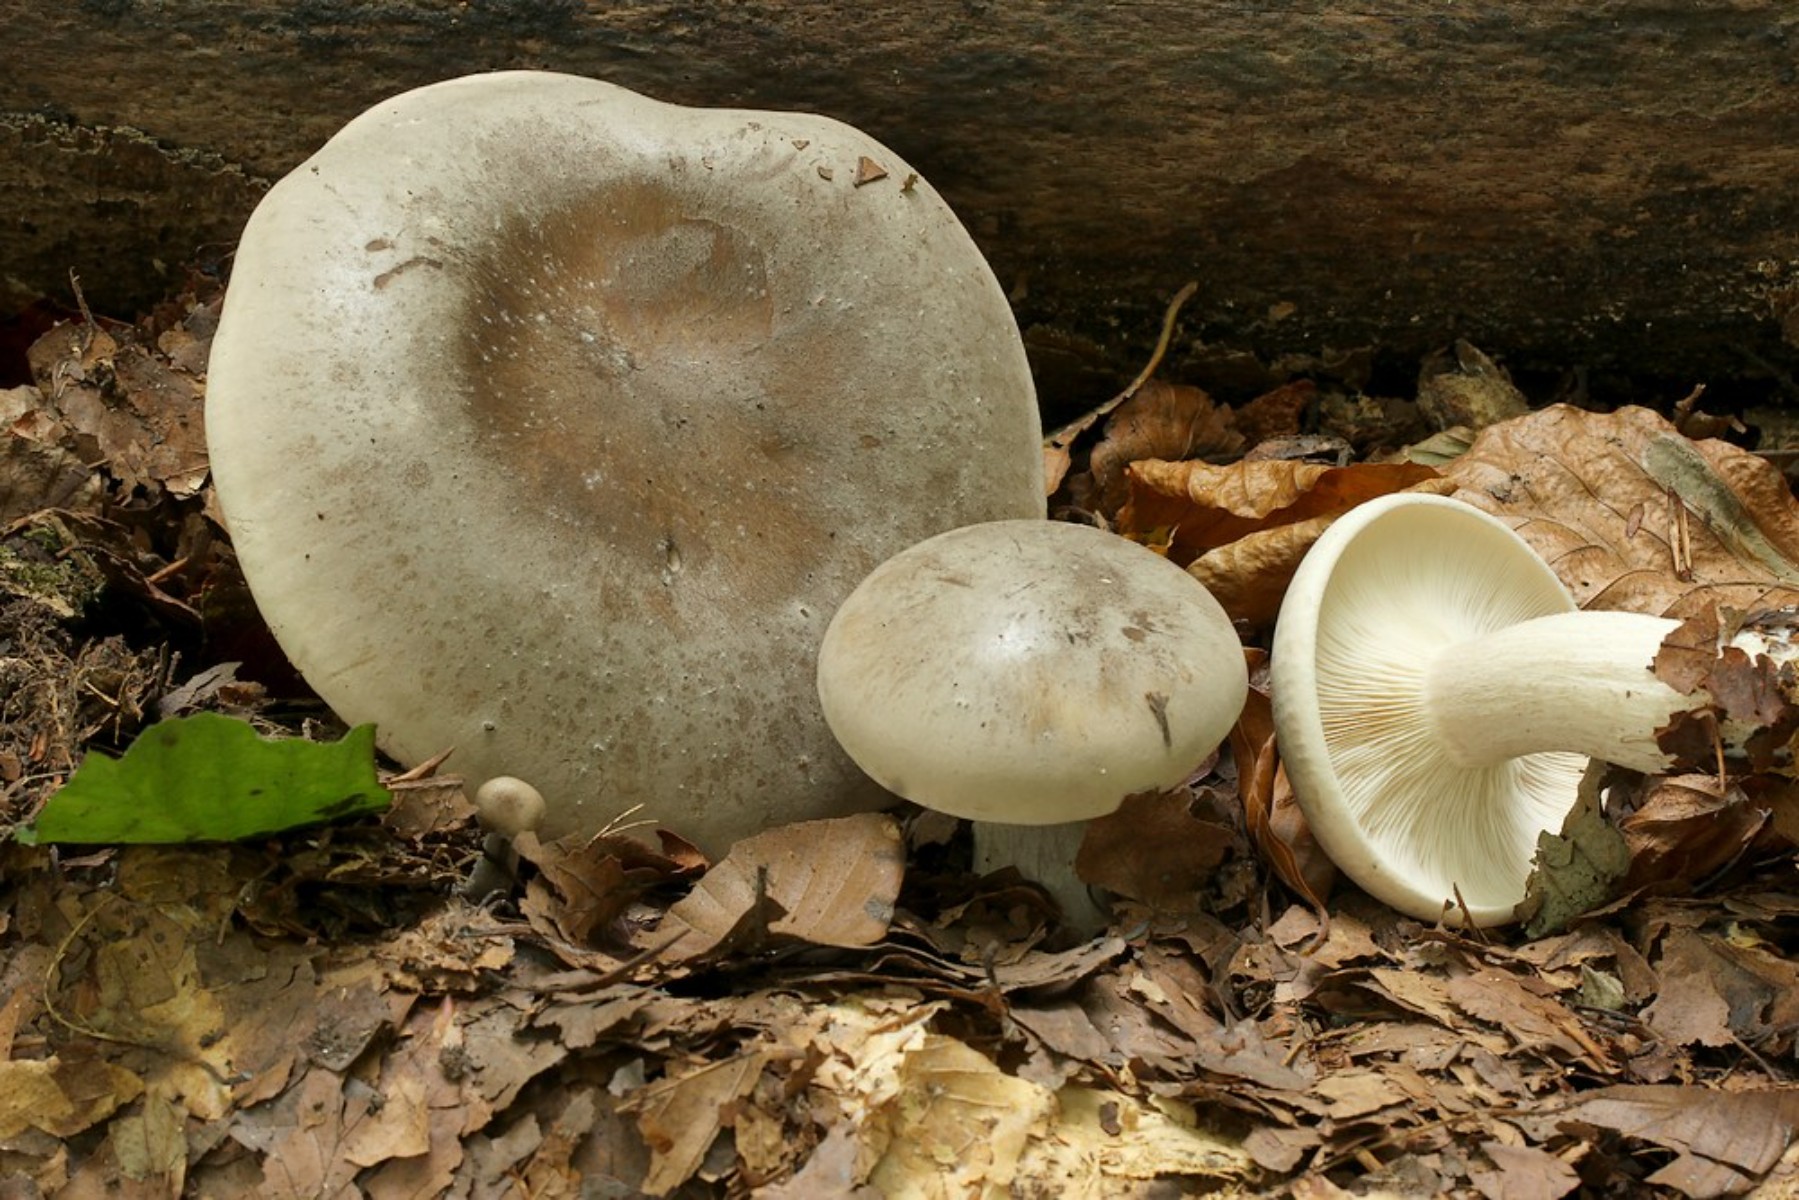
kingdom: Fungi
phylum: Basidiomycota
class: Agaricomycetes
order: Agaricales
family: Tricholomataceae
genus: Clitocybe
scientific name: Clitocybe nebularis
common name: tåge-tragthat
